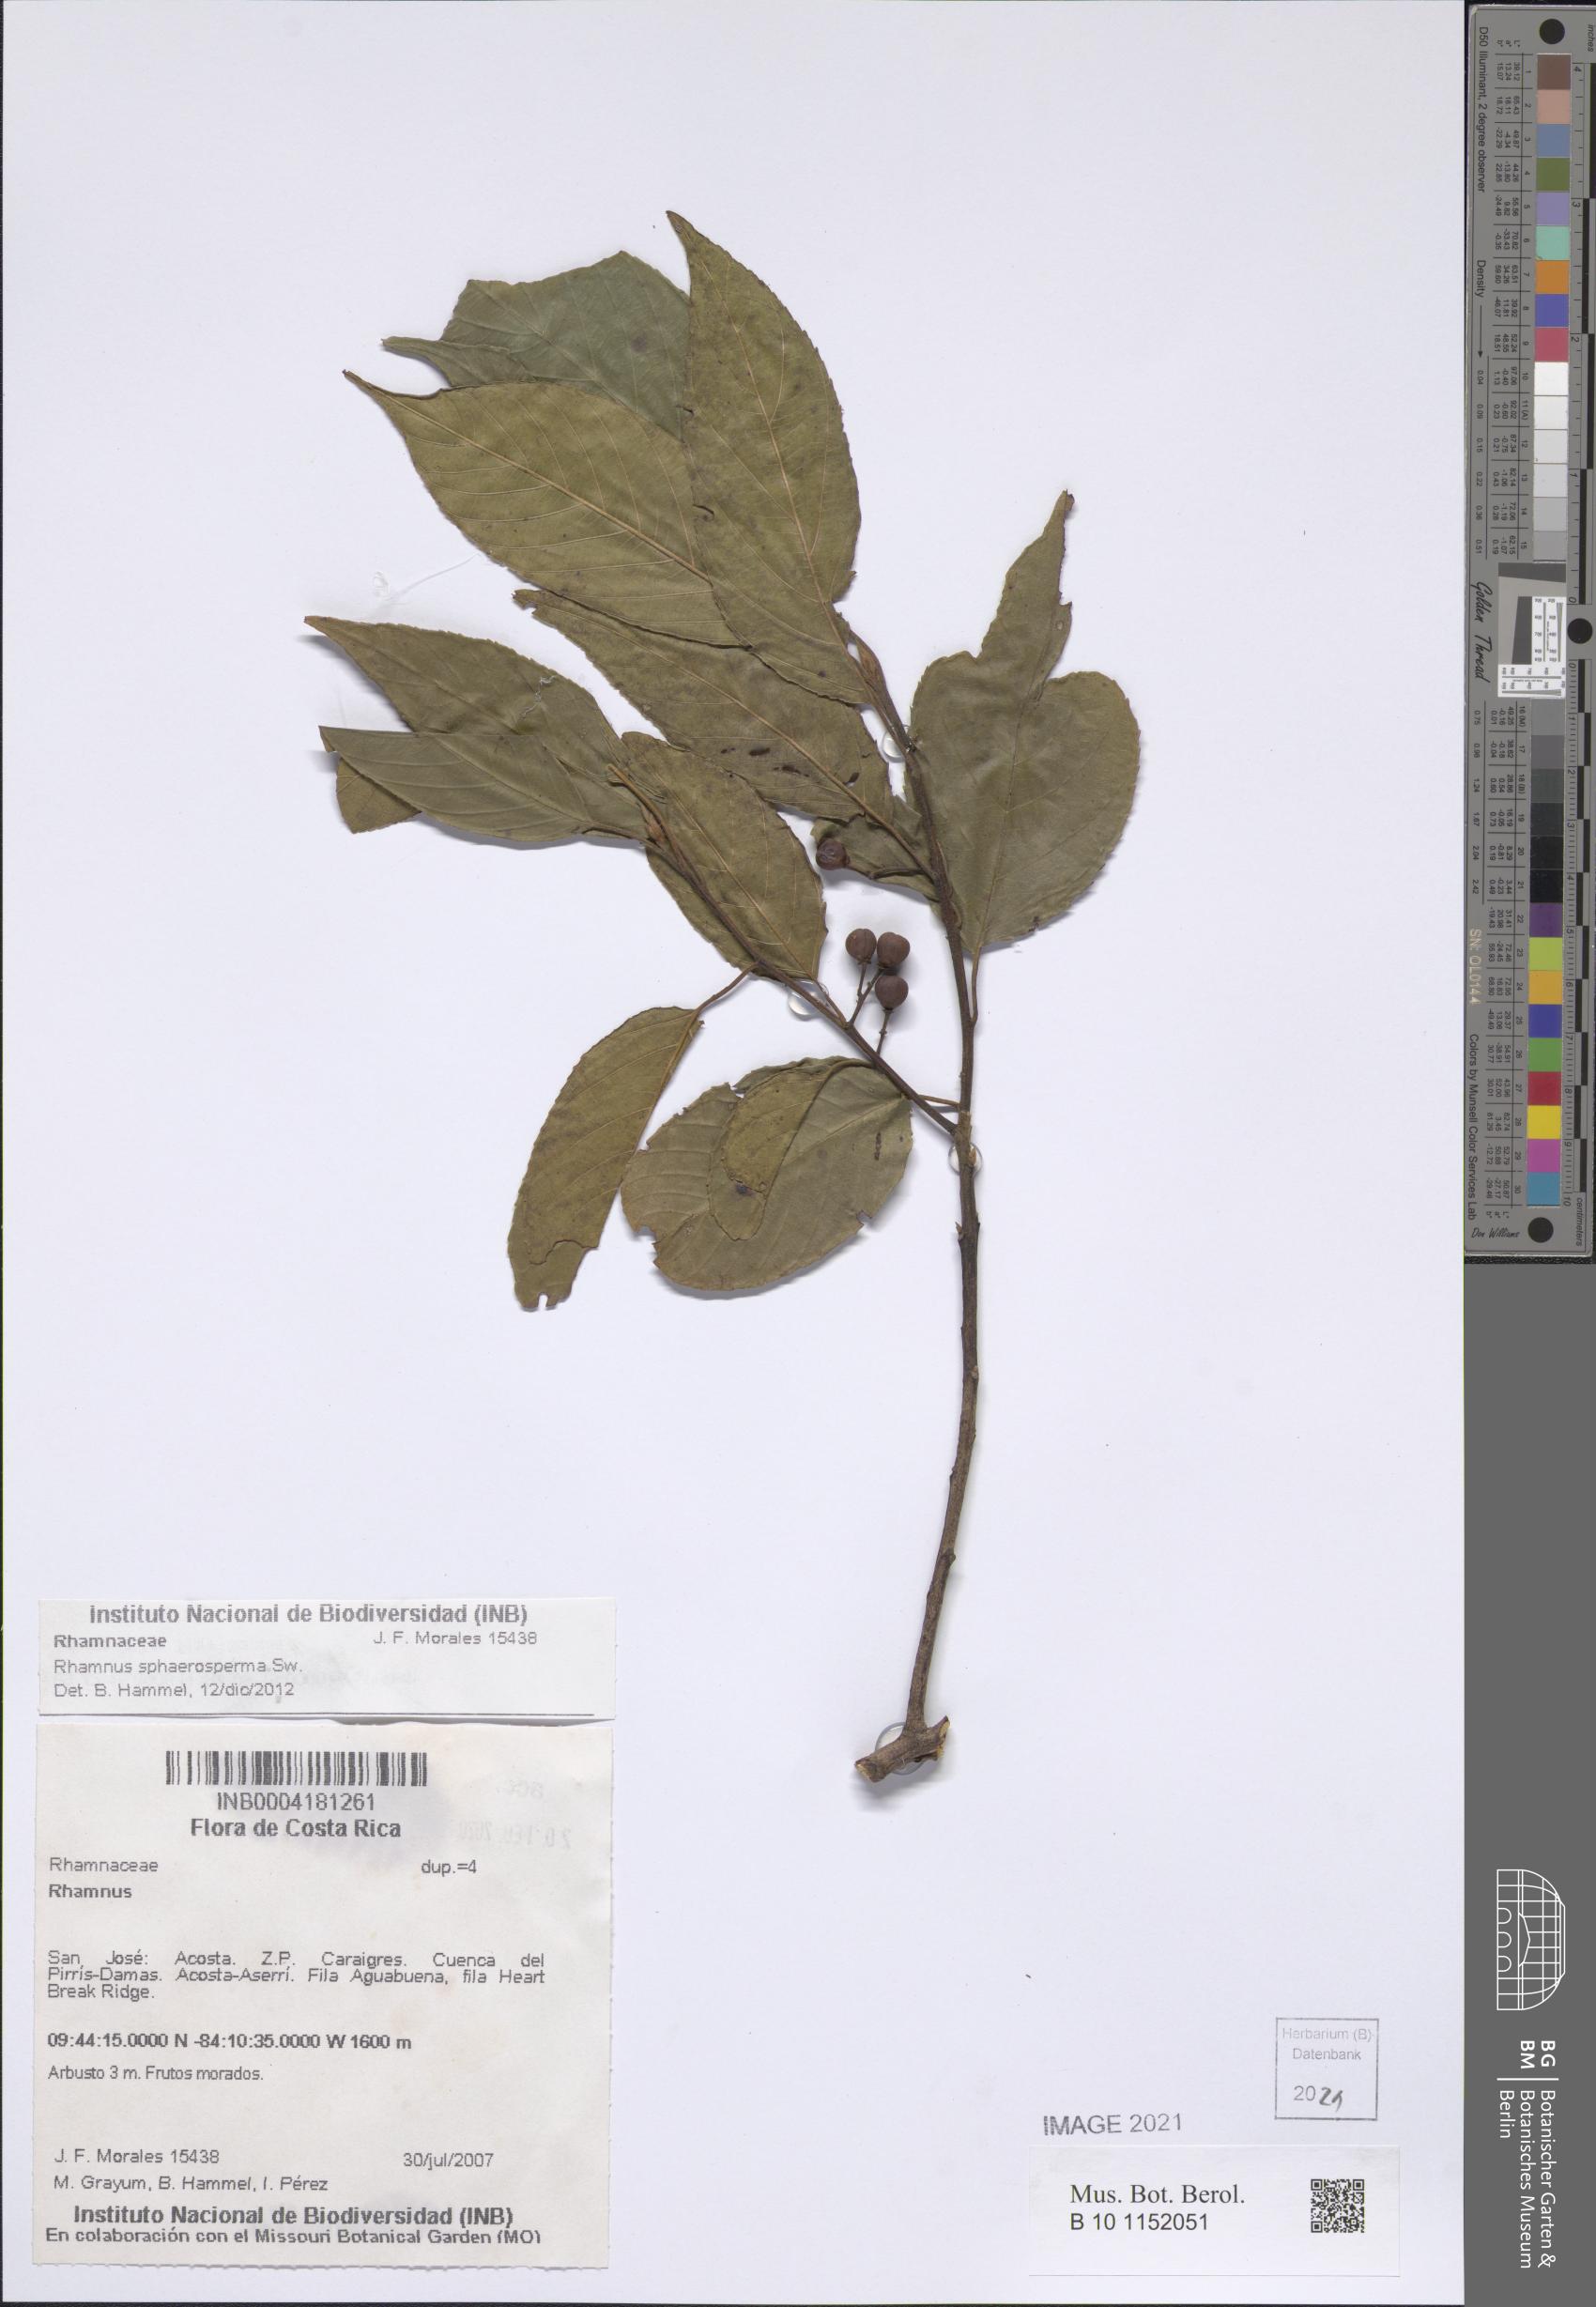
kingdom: Plantae
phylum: Tracheophyta
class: Magnoliopsida
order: Rosales
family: Rhamnaceae
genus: Frangula
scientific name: Frangula pendula
